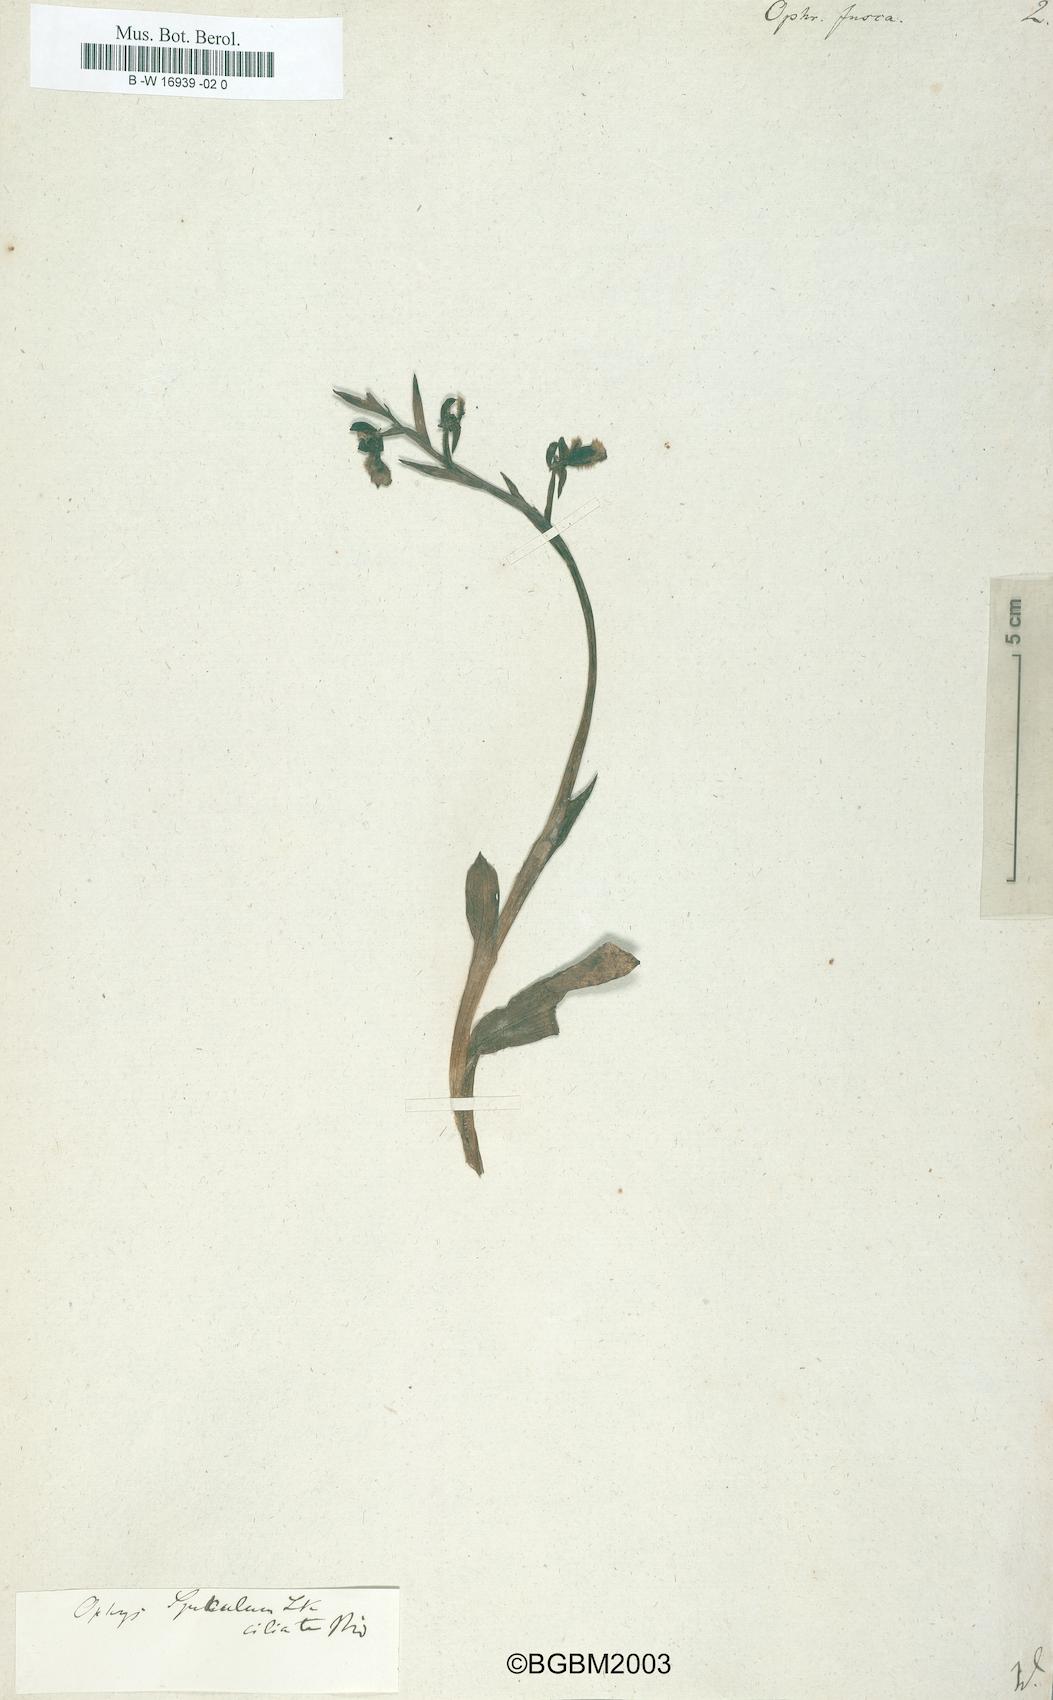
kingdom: Plantae
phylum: Tracheophyta
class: Liliopsida
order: Asparagales
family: Orchidaceae
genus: Ophrys
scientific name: Ophrys fusca
